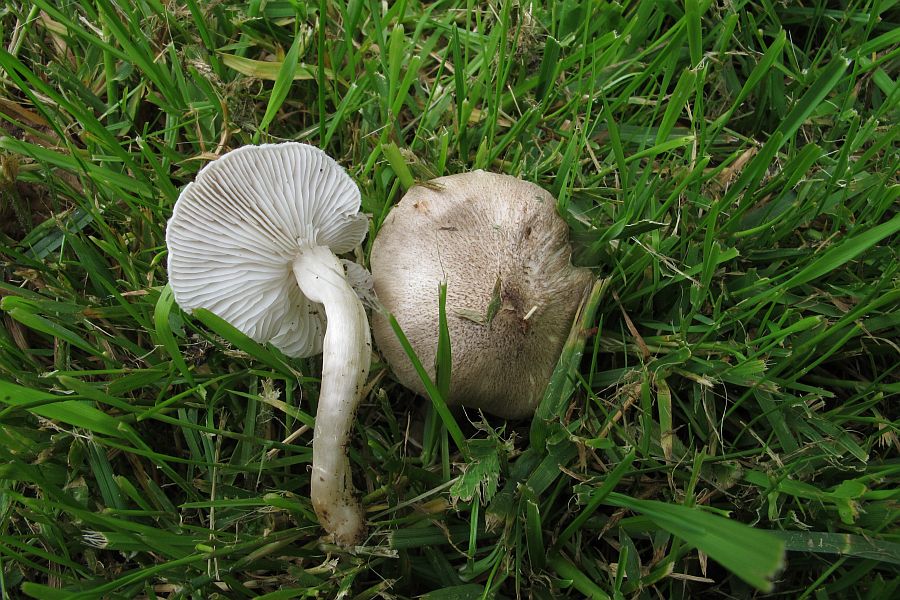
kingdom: Fungi
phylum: Basidiomycota
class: Agaricomycetes
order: Agaricales
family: Tricholomataceae
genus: Tricholoma
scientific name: Tricholoma argyraceum
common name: slør-ridderhat
